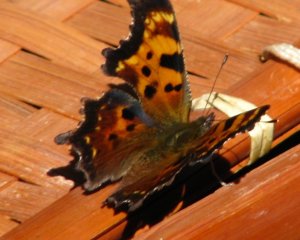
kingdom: Animalia
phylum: Arthropoda
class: Insecta
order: Lepidoptera
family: Nymphalidae
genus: Polygonia
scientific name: Polygonia faunus
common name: Green Comma
